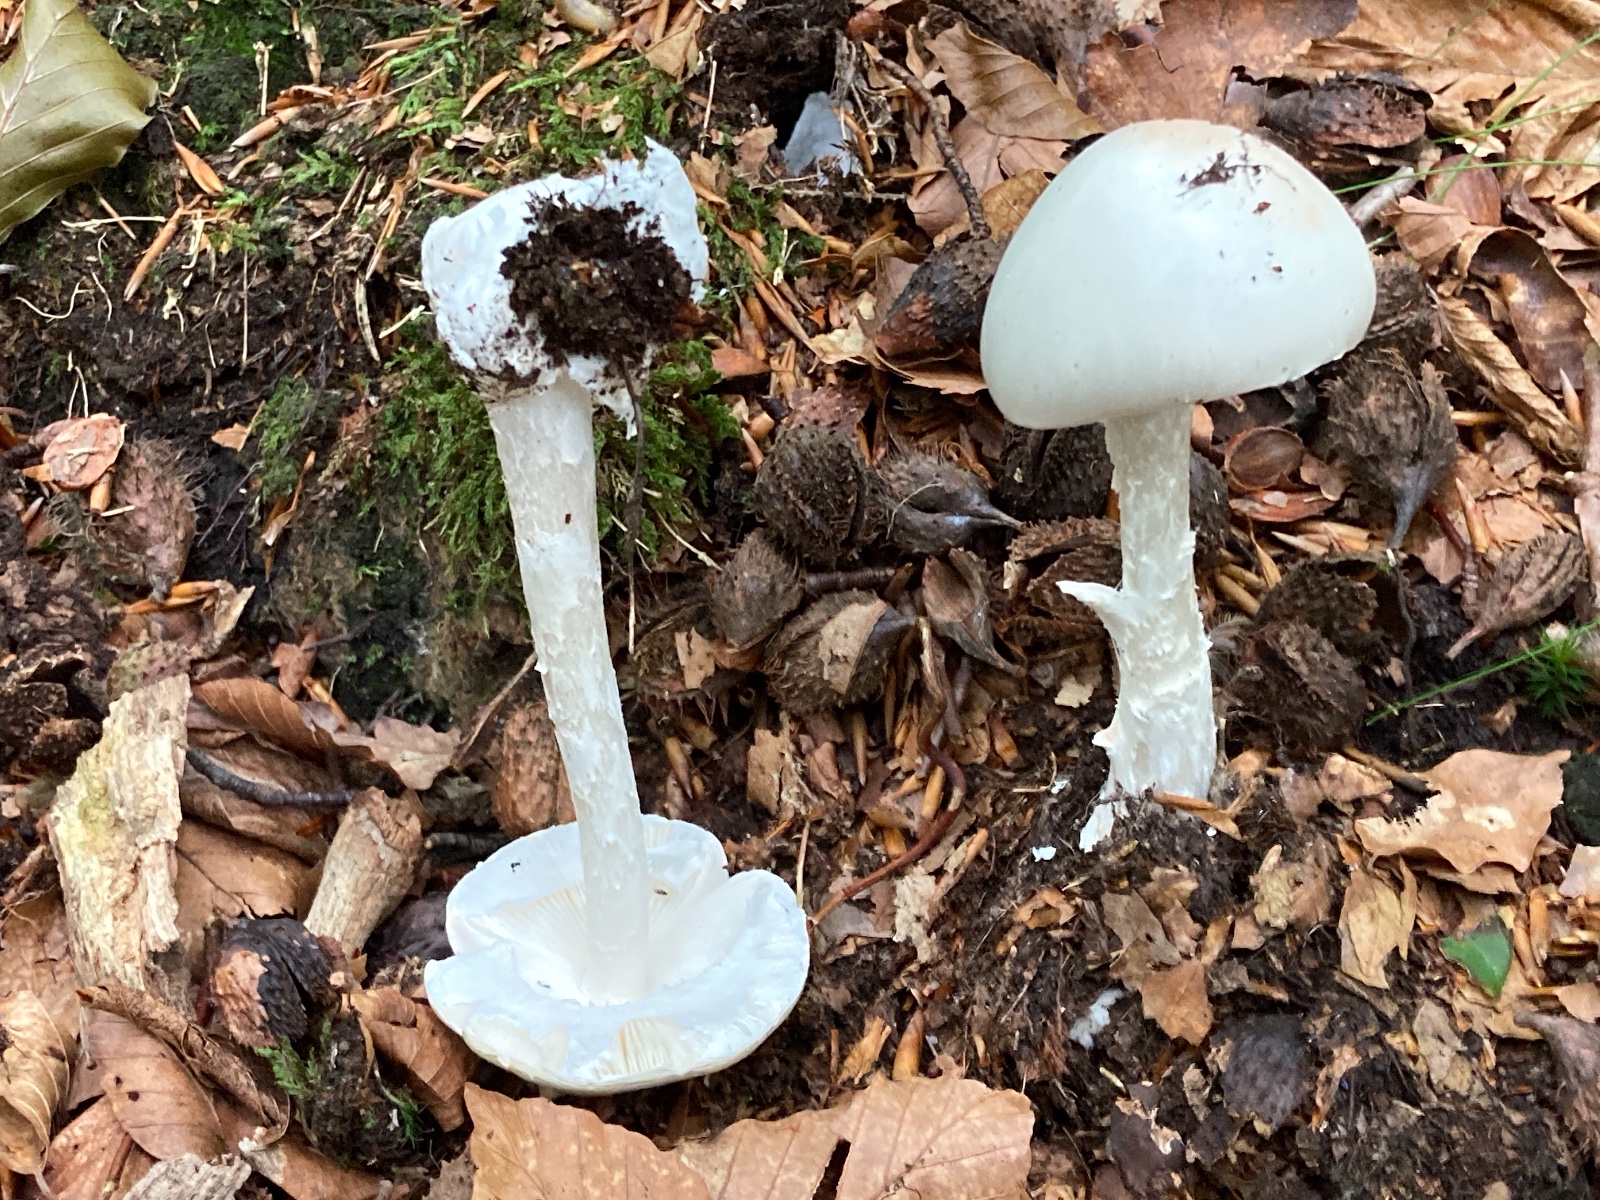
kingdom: Fungi
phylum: Basidiomycota
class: Agaricomycetes
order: Agaricales
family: Amanitaceae
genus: Amanita
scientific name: Amanita virosa
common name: snehvid fluesvamp
